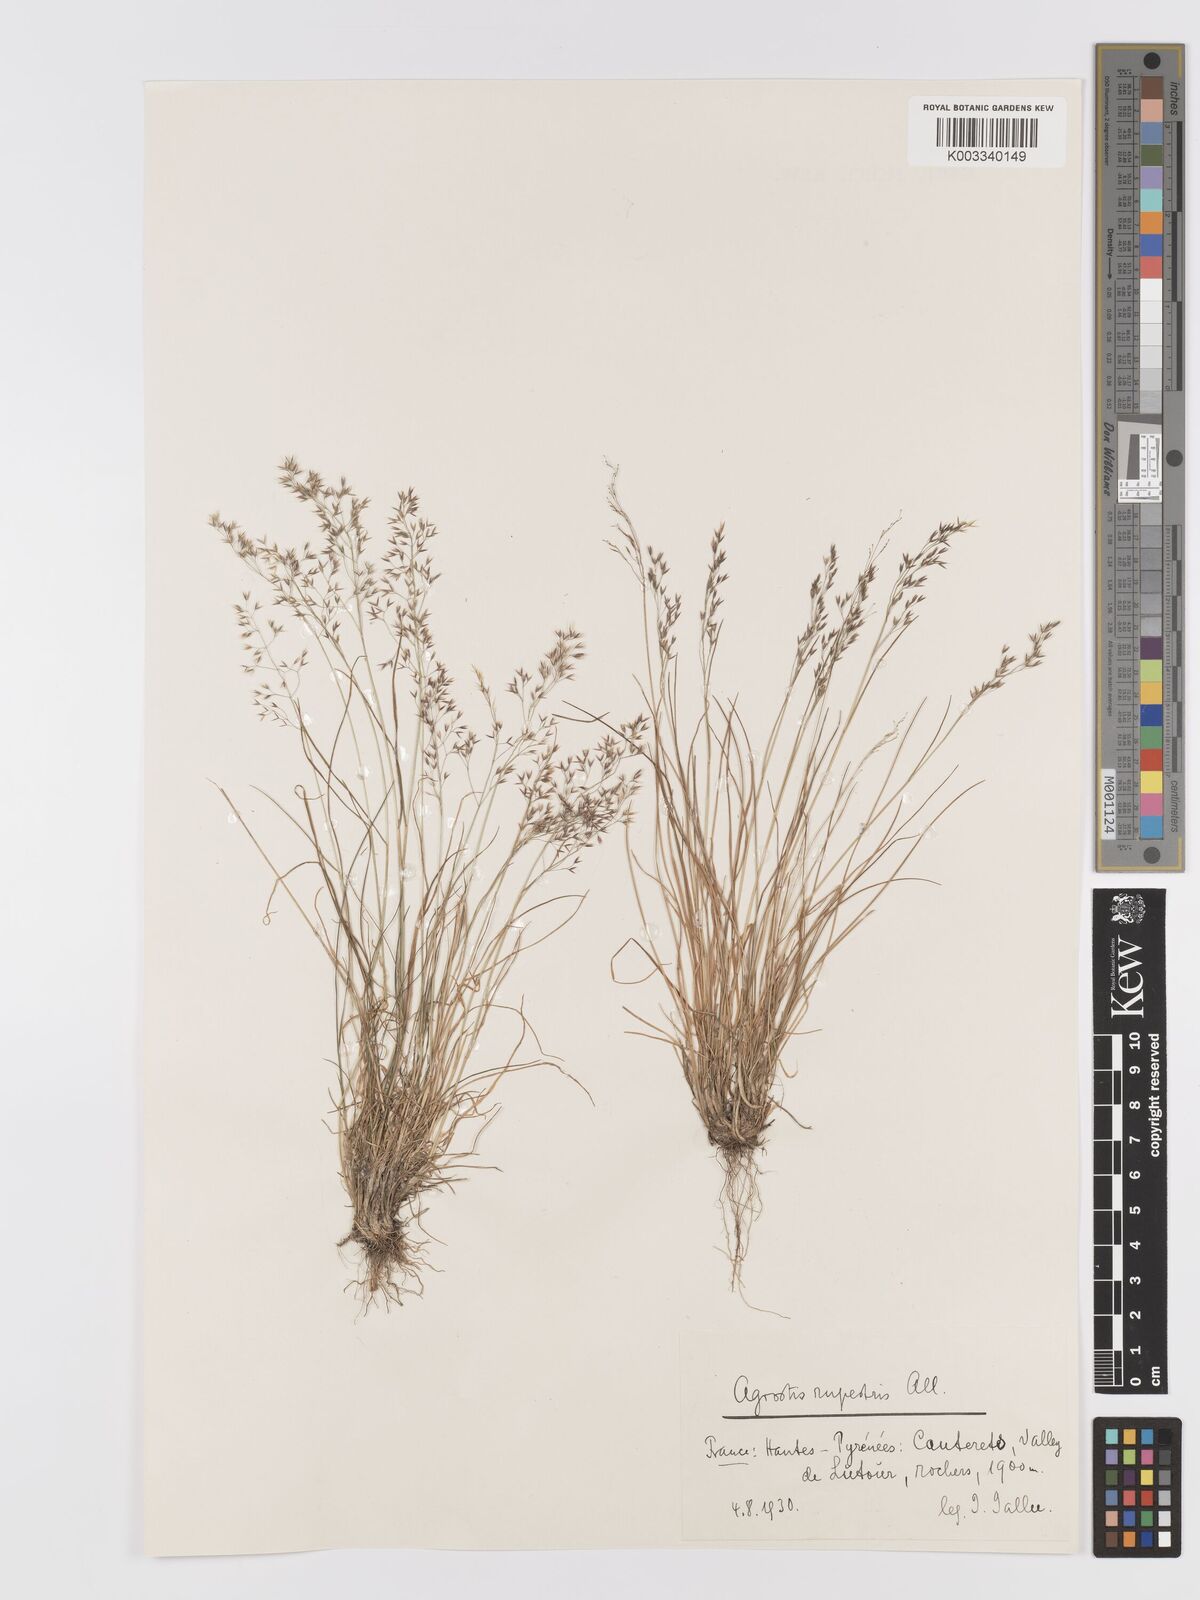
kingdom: Plantae
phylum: Tracheophyta
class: Liliopsida
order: Poales
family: Poaceae
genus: Agrostis
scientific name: Agrostis rupestris
